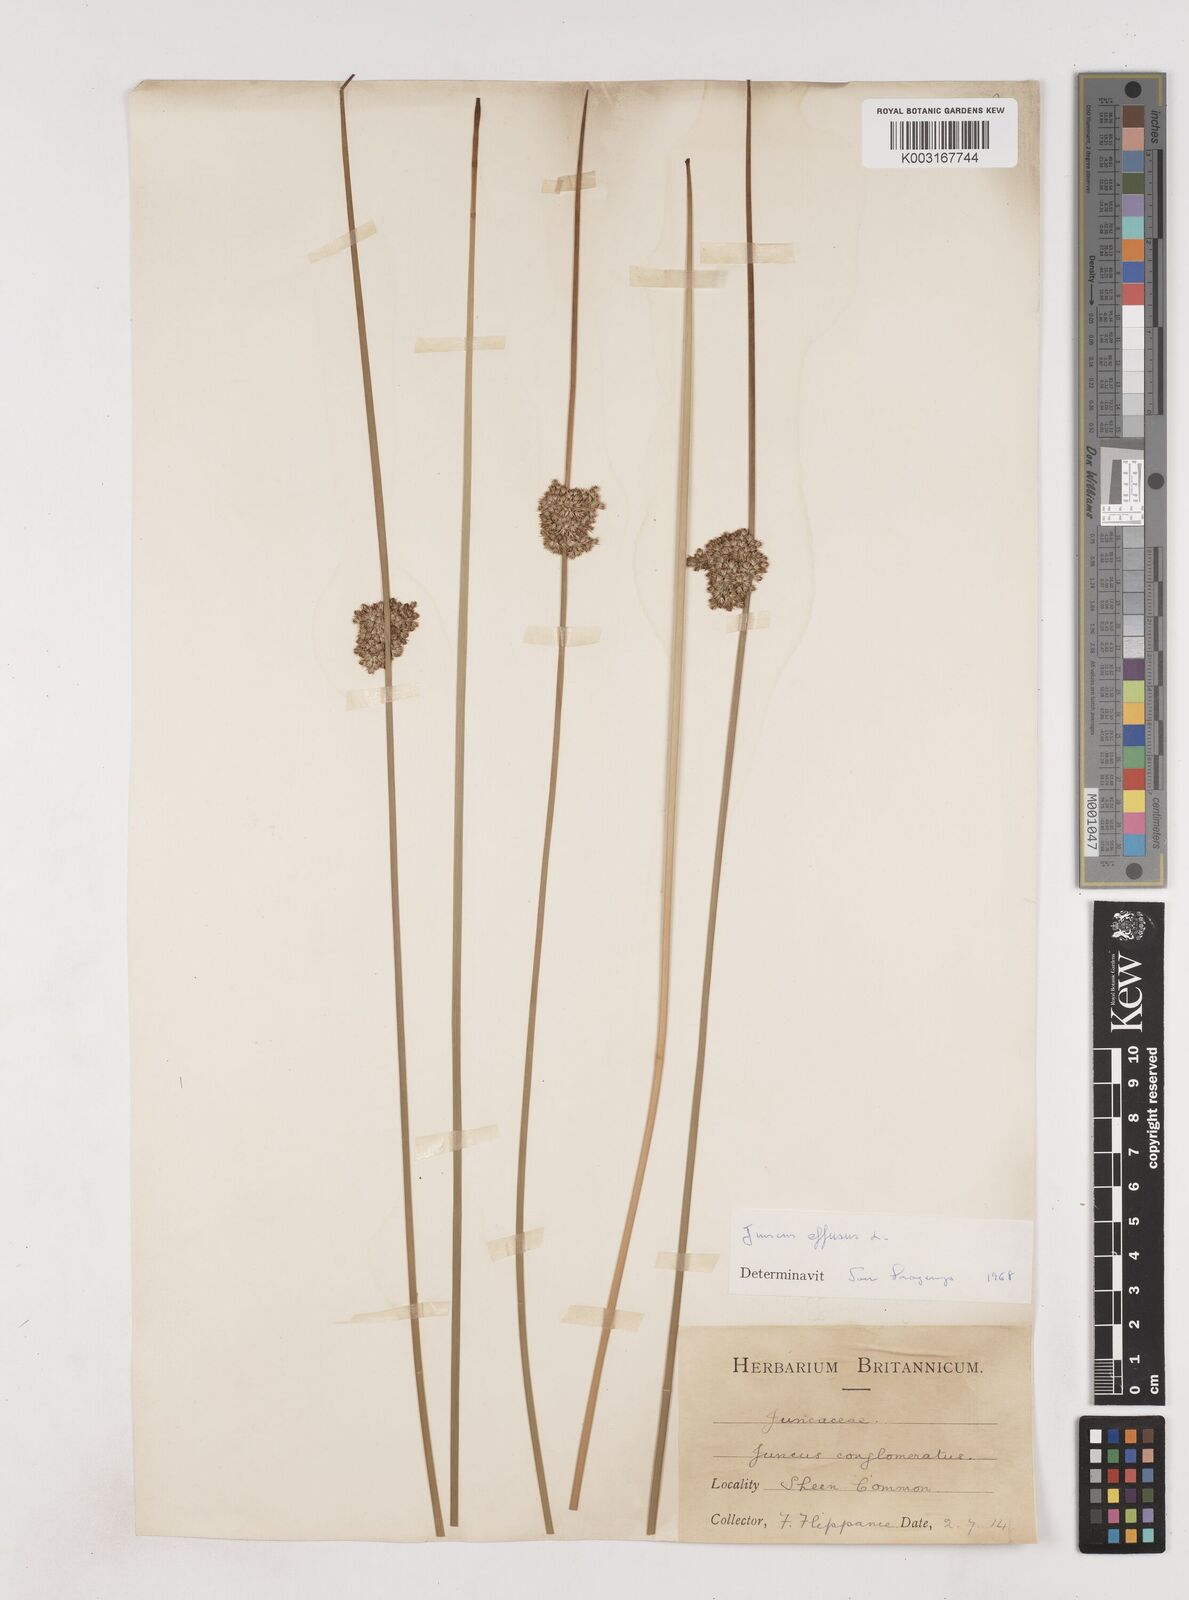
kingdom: Plantae
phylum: Tracheophyta
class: Liliopsida
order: Poales
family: Juncaceae
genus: Juncus
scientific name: Juncus effusus
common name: Soft rush
